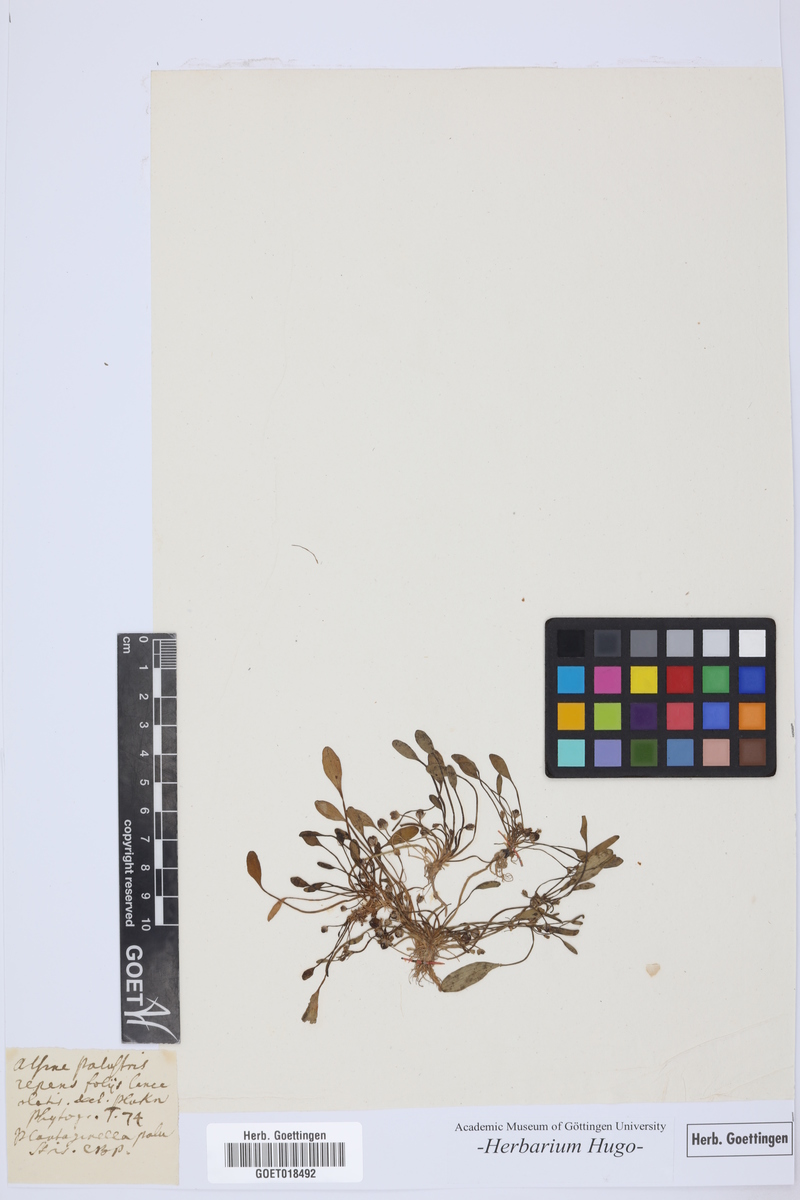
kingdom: Plantae
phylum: Tracheophyta
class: Magnoliopsida
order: Lamiales
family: Scrophulariaceae
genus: Limosella
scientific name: Limosella aquatica
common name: Mudwort
